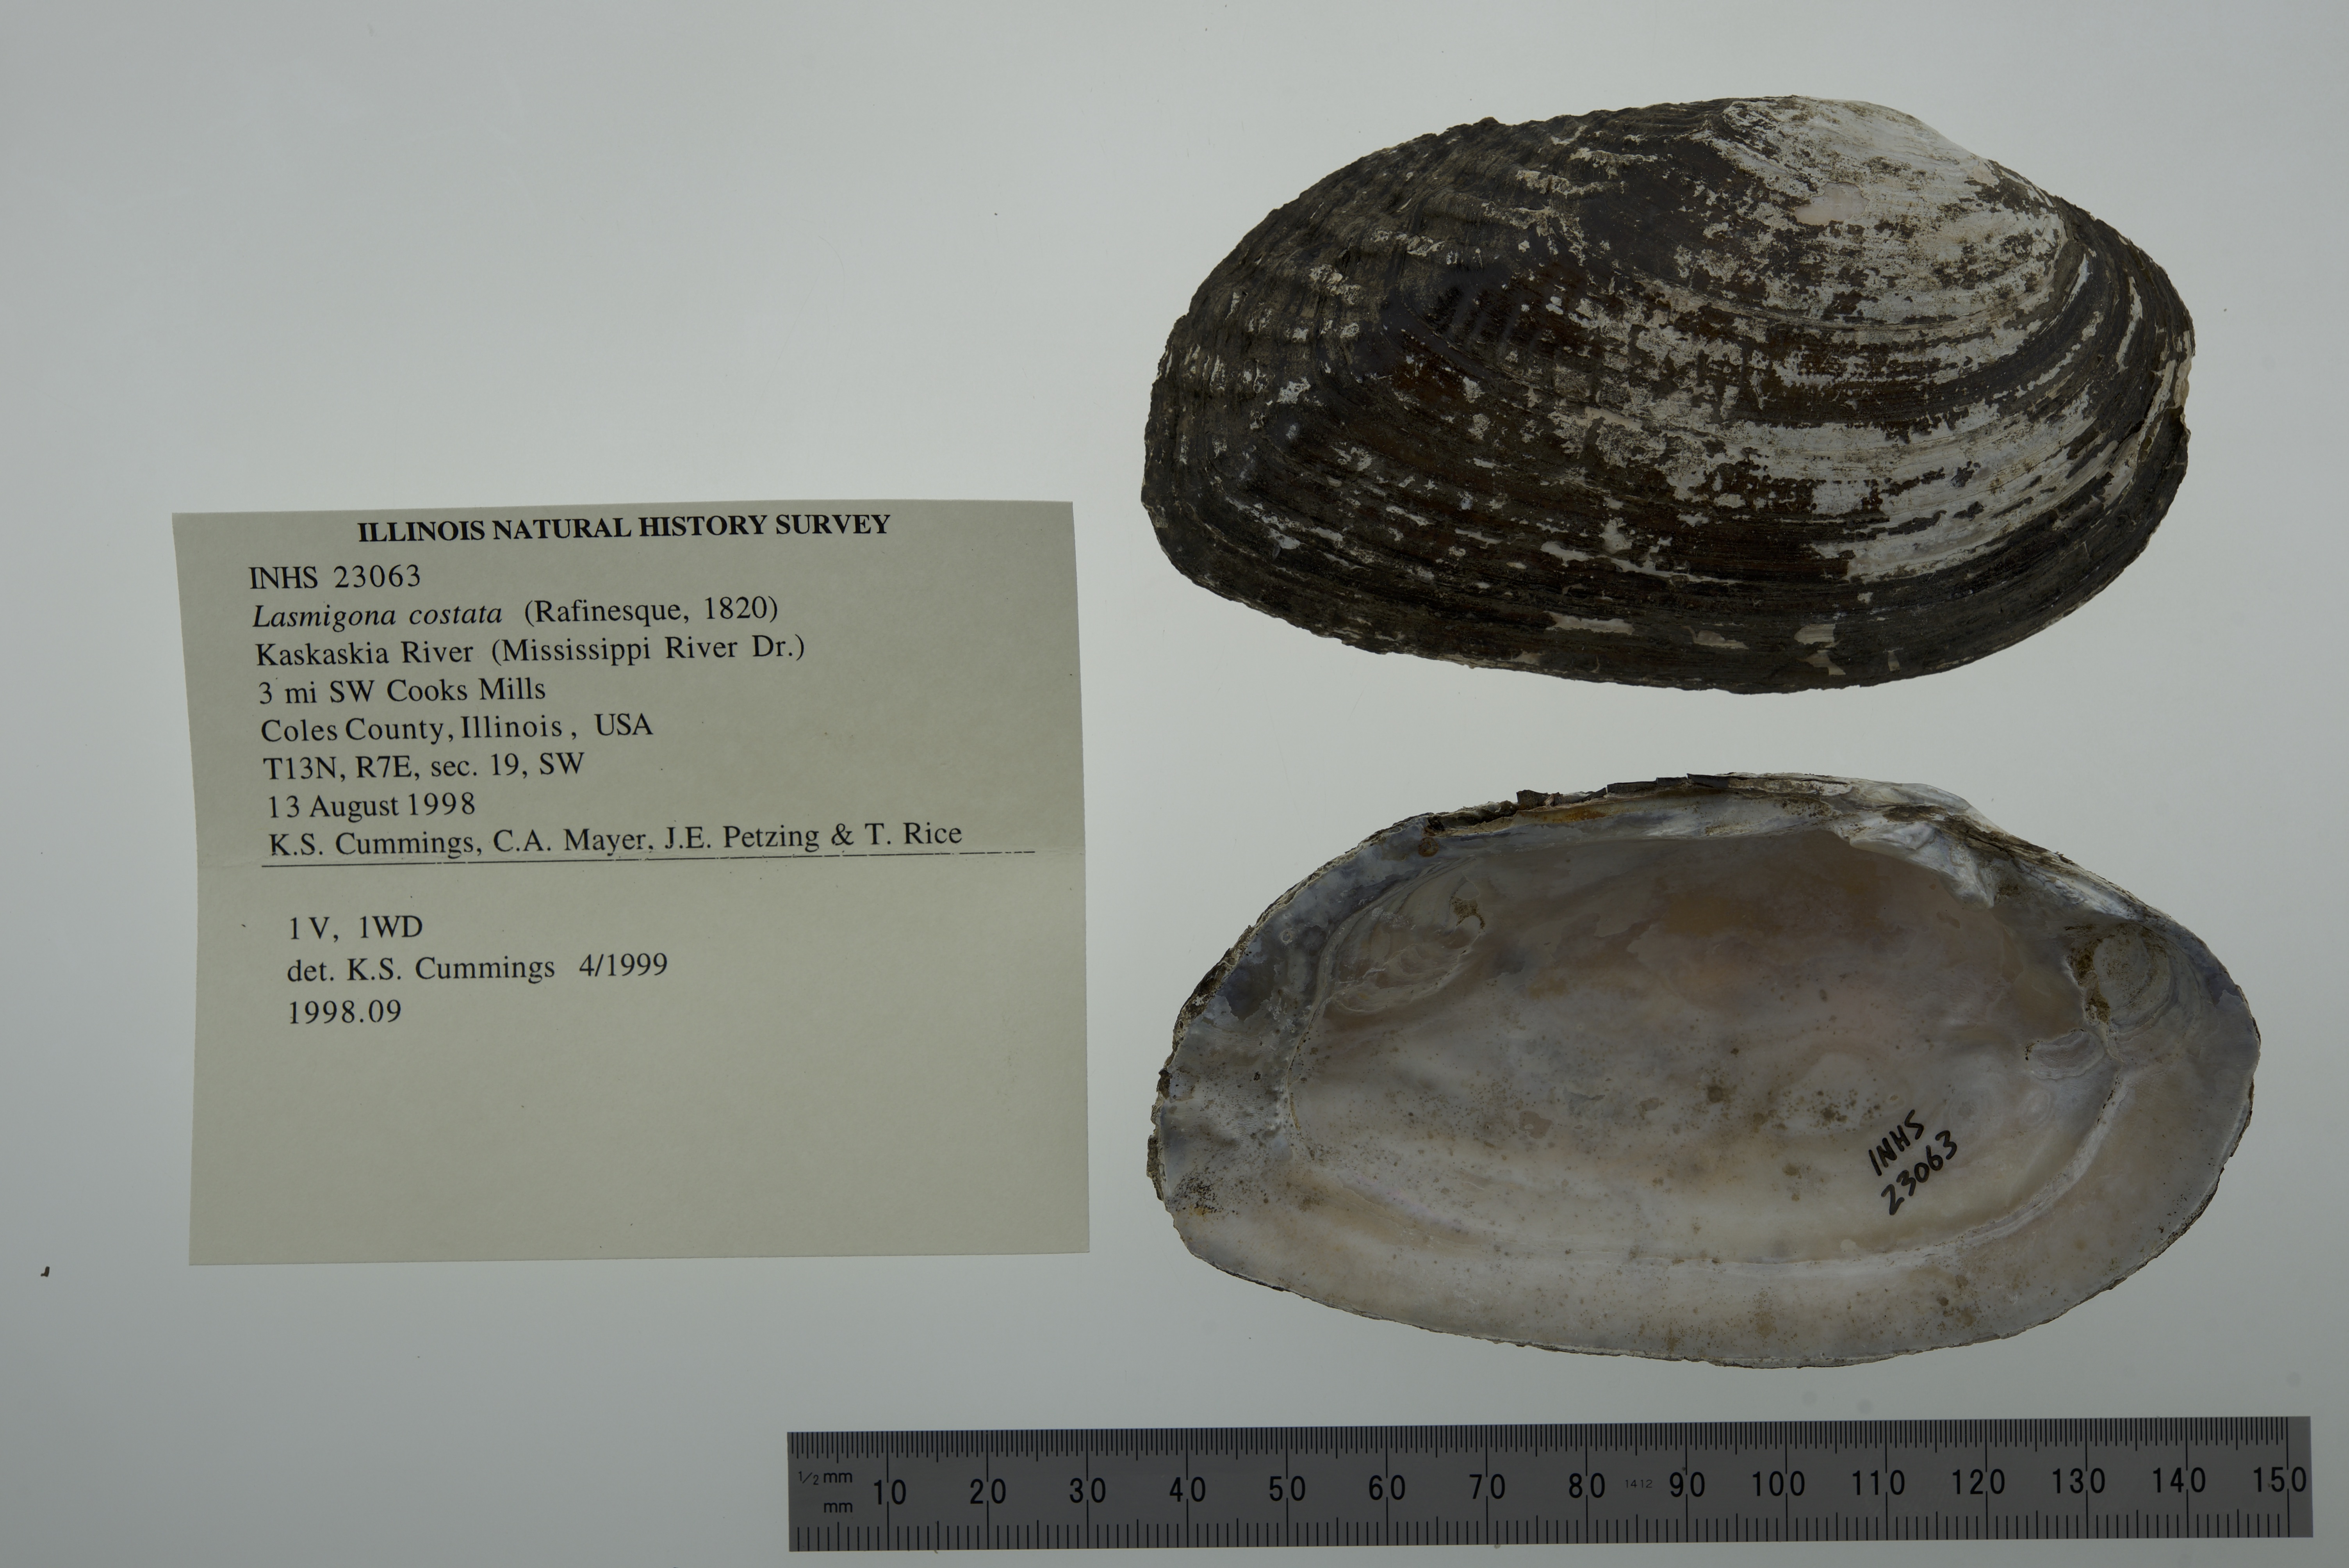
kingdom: Animalia
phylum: Mollusca
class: Bivalvia
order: Unionida
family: Unionidae
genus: Lasmigona
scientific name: Lasmigona costata
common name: Flutedshell
